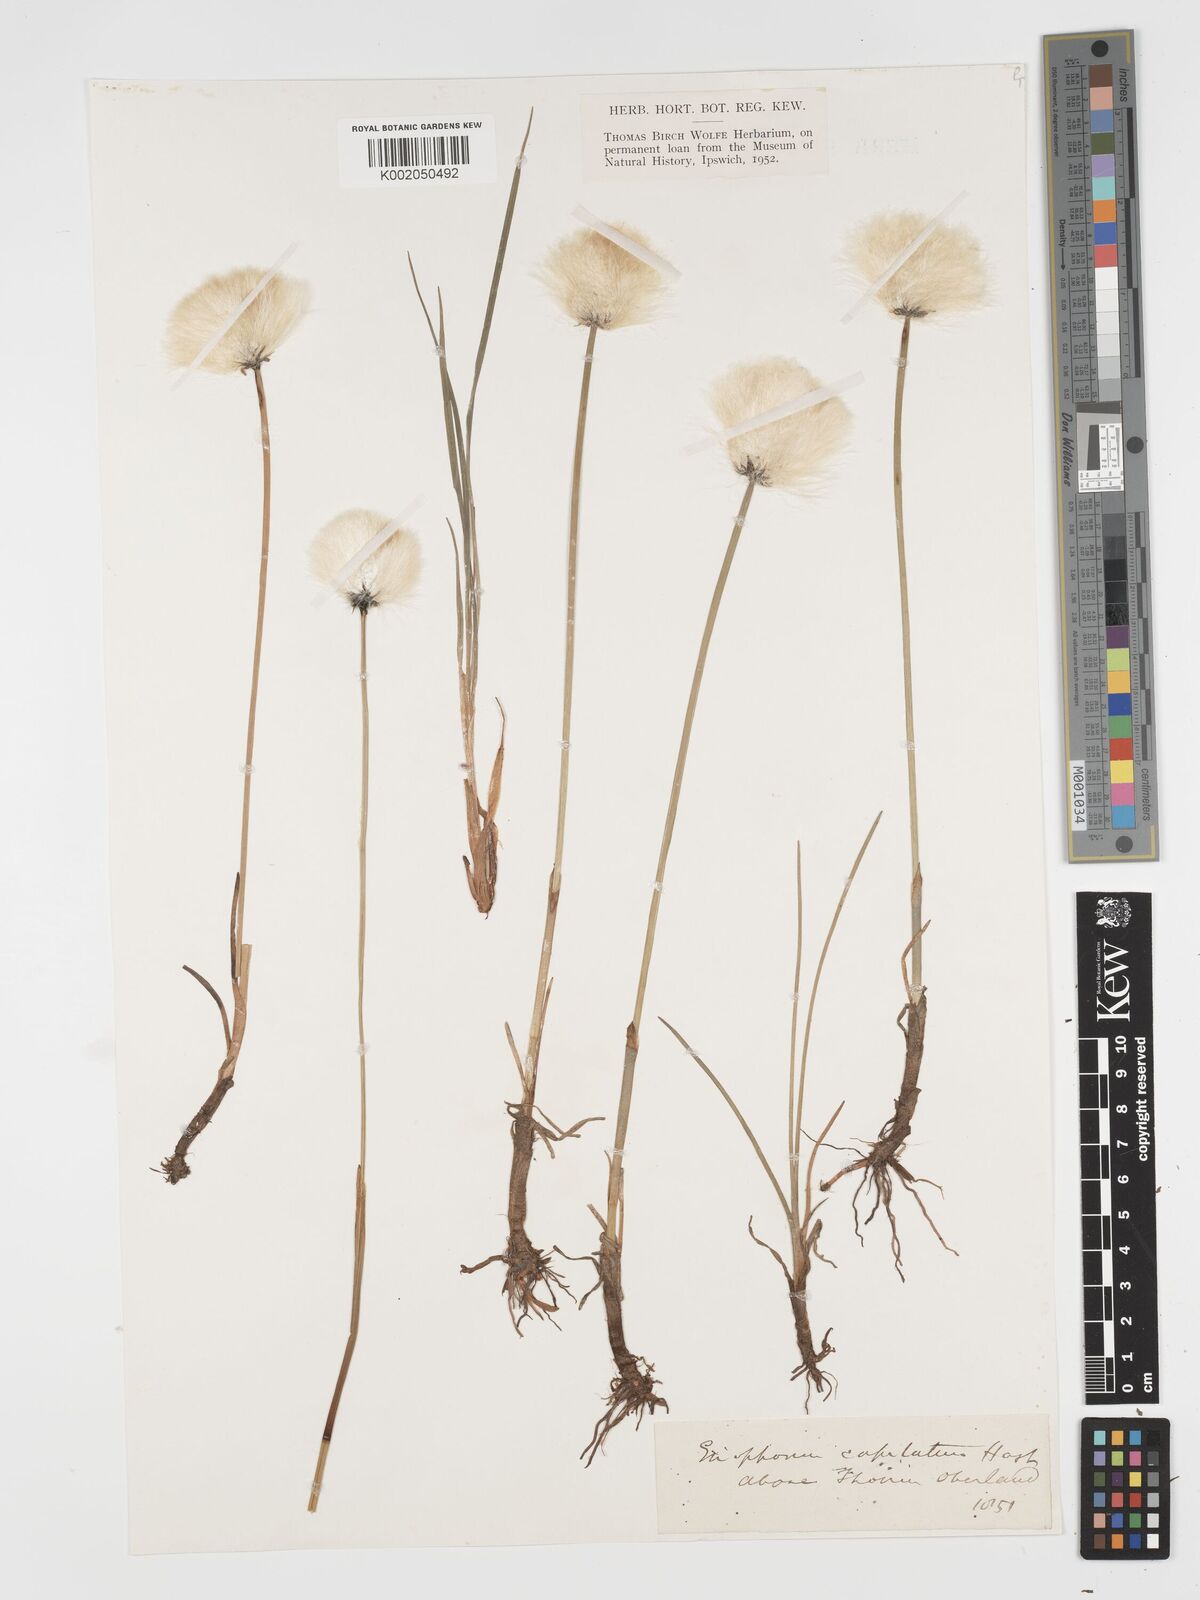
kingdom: Plantae
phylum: Tracheophyta
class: Liliopsida
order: Poales
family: Cyperaceae
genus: Eriophorum
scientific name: Eriophorum scheuchzeri
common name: Scheuchzer's cottongrass
